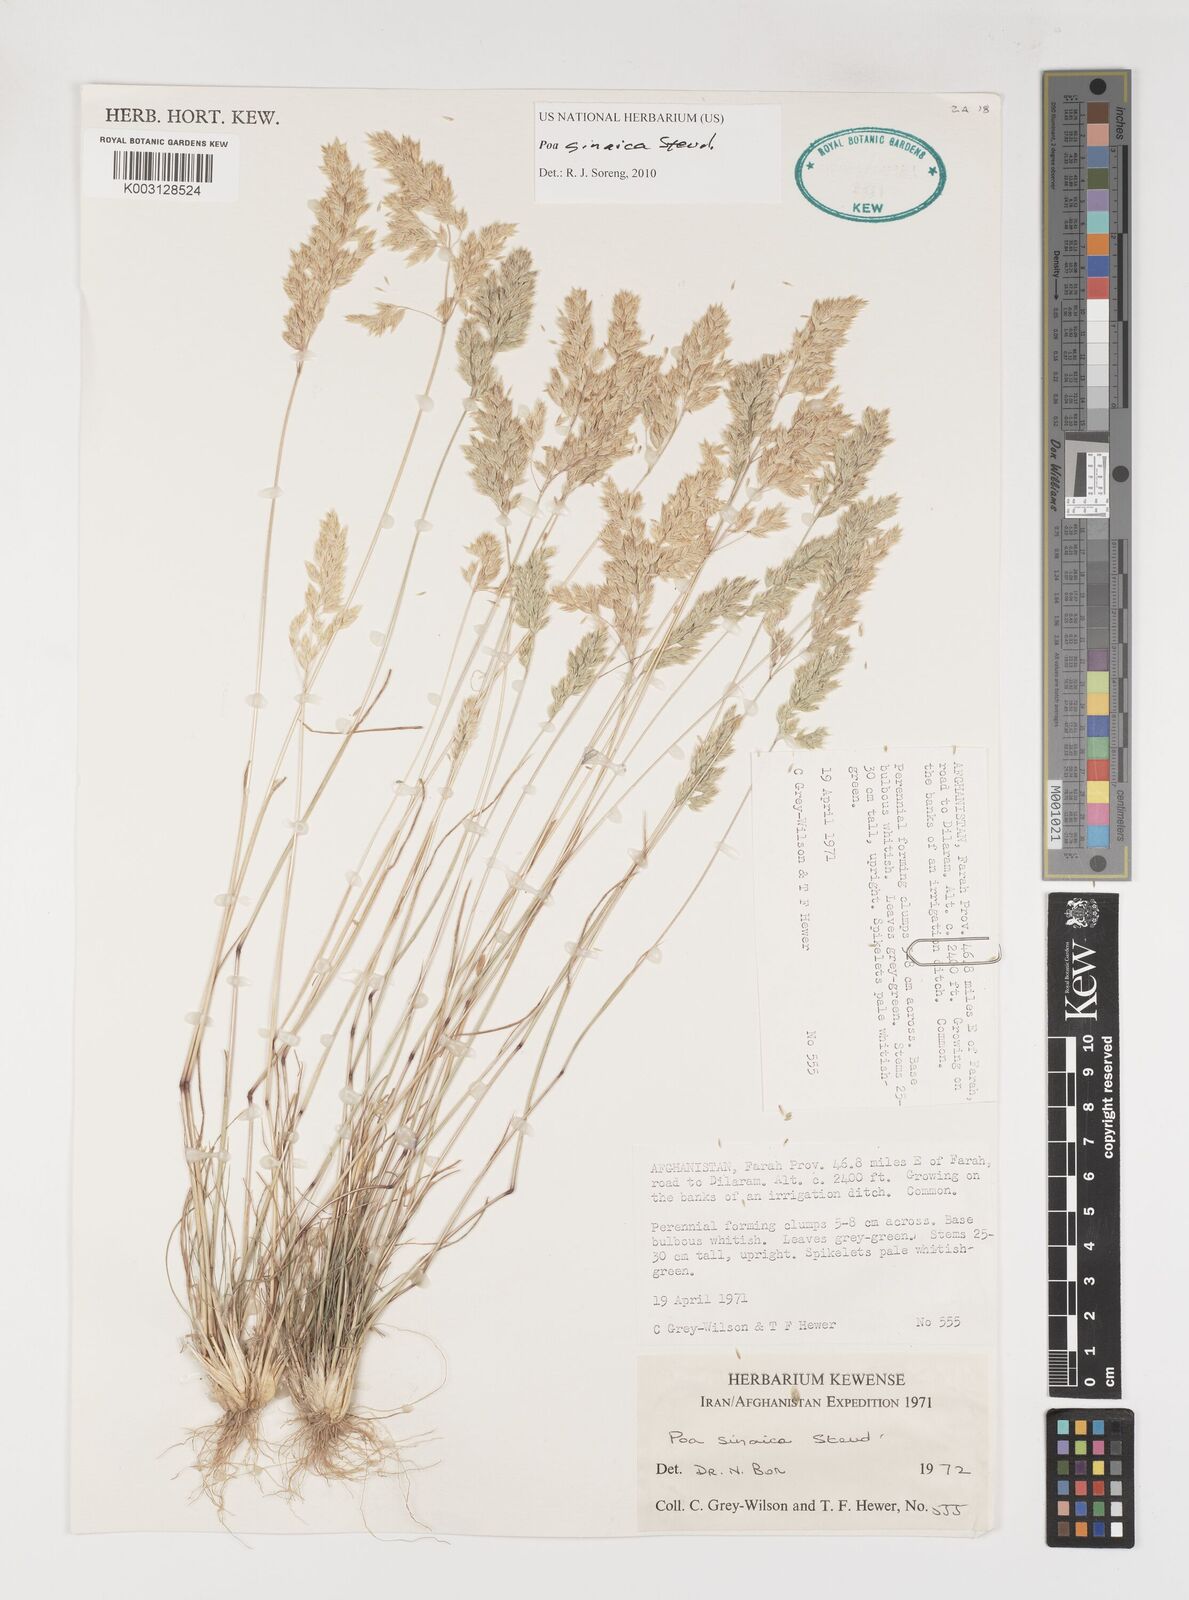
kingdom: Plantae
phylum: Tracheophyta
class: Liliopsida
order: Poales
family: Poaceae
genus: Poa
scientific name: Poa sinaica
